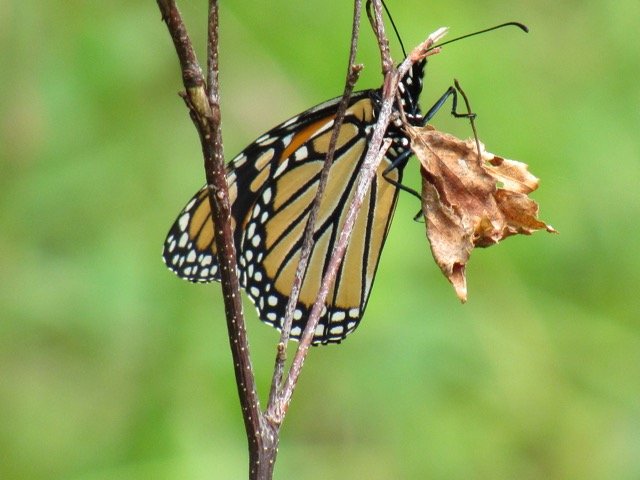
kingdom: Animalia
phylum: Arthropoda
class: Insecta
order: Lepidoptera
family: Nymphalidae
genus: Danaus
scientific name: Danaus plexippus
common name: Monarch
